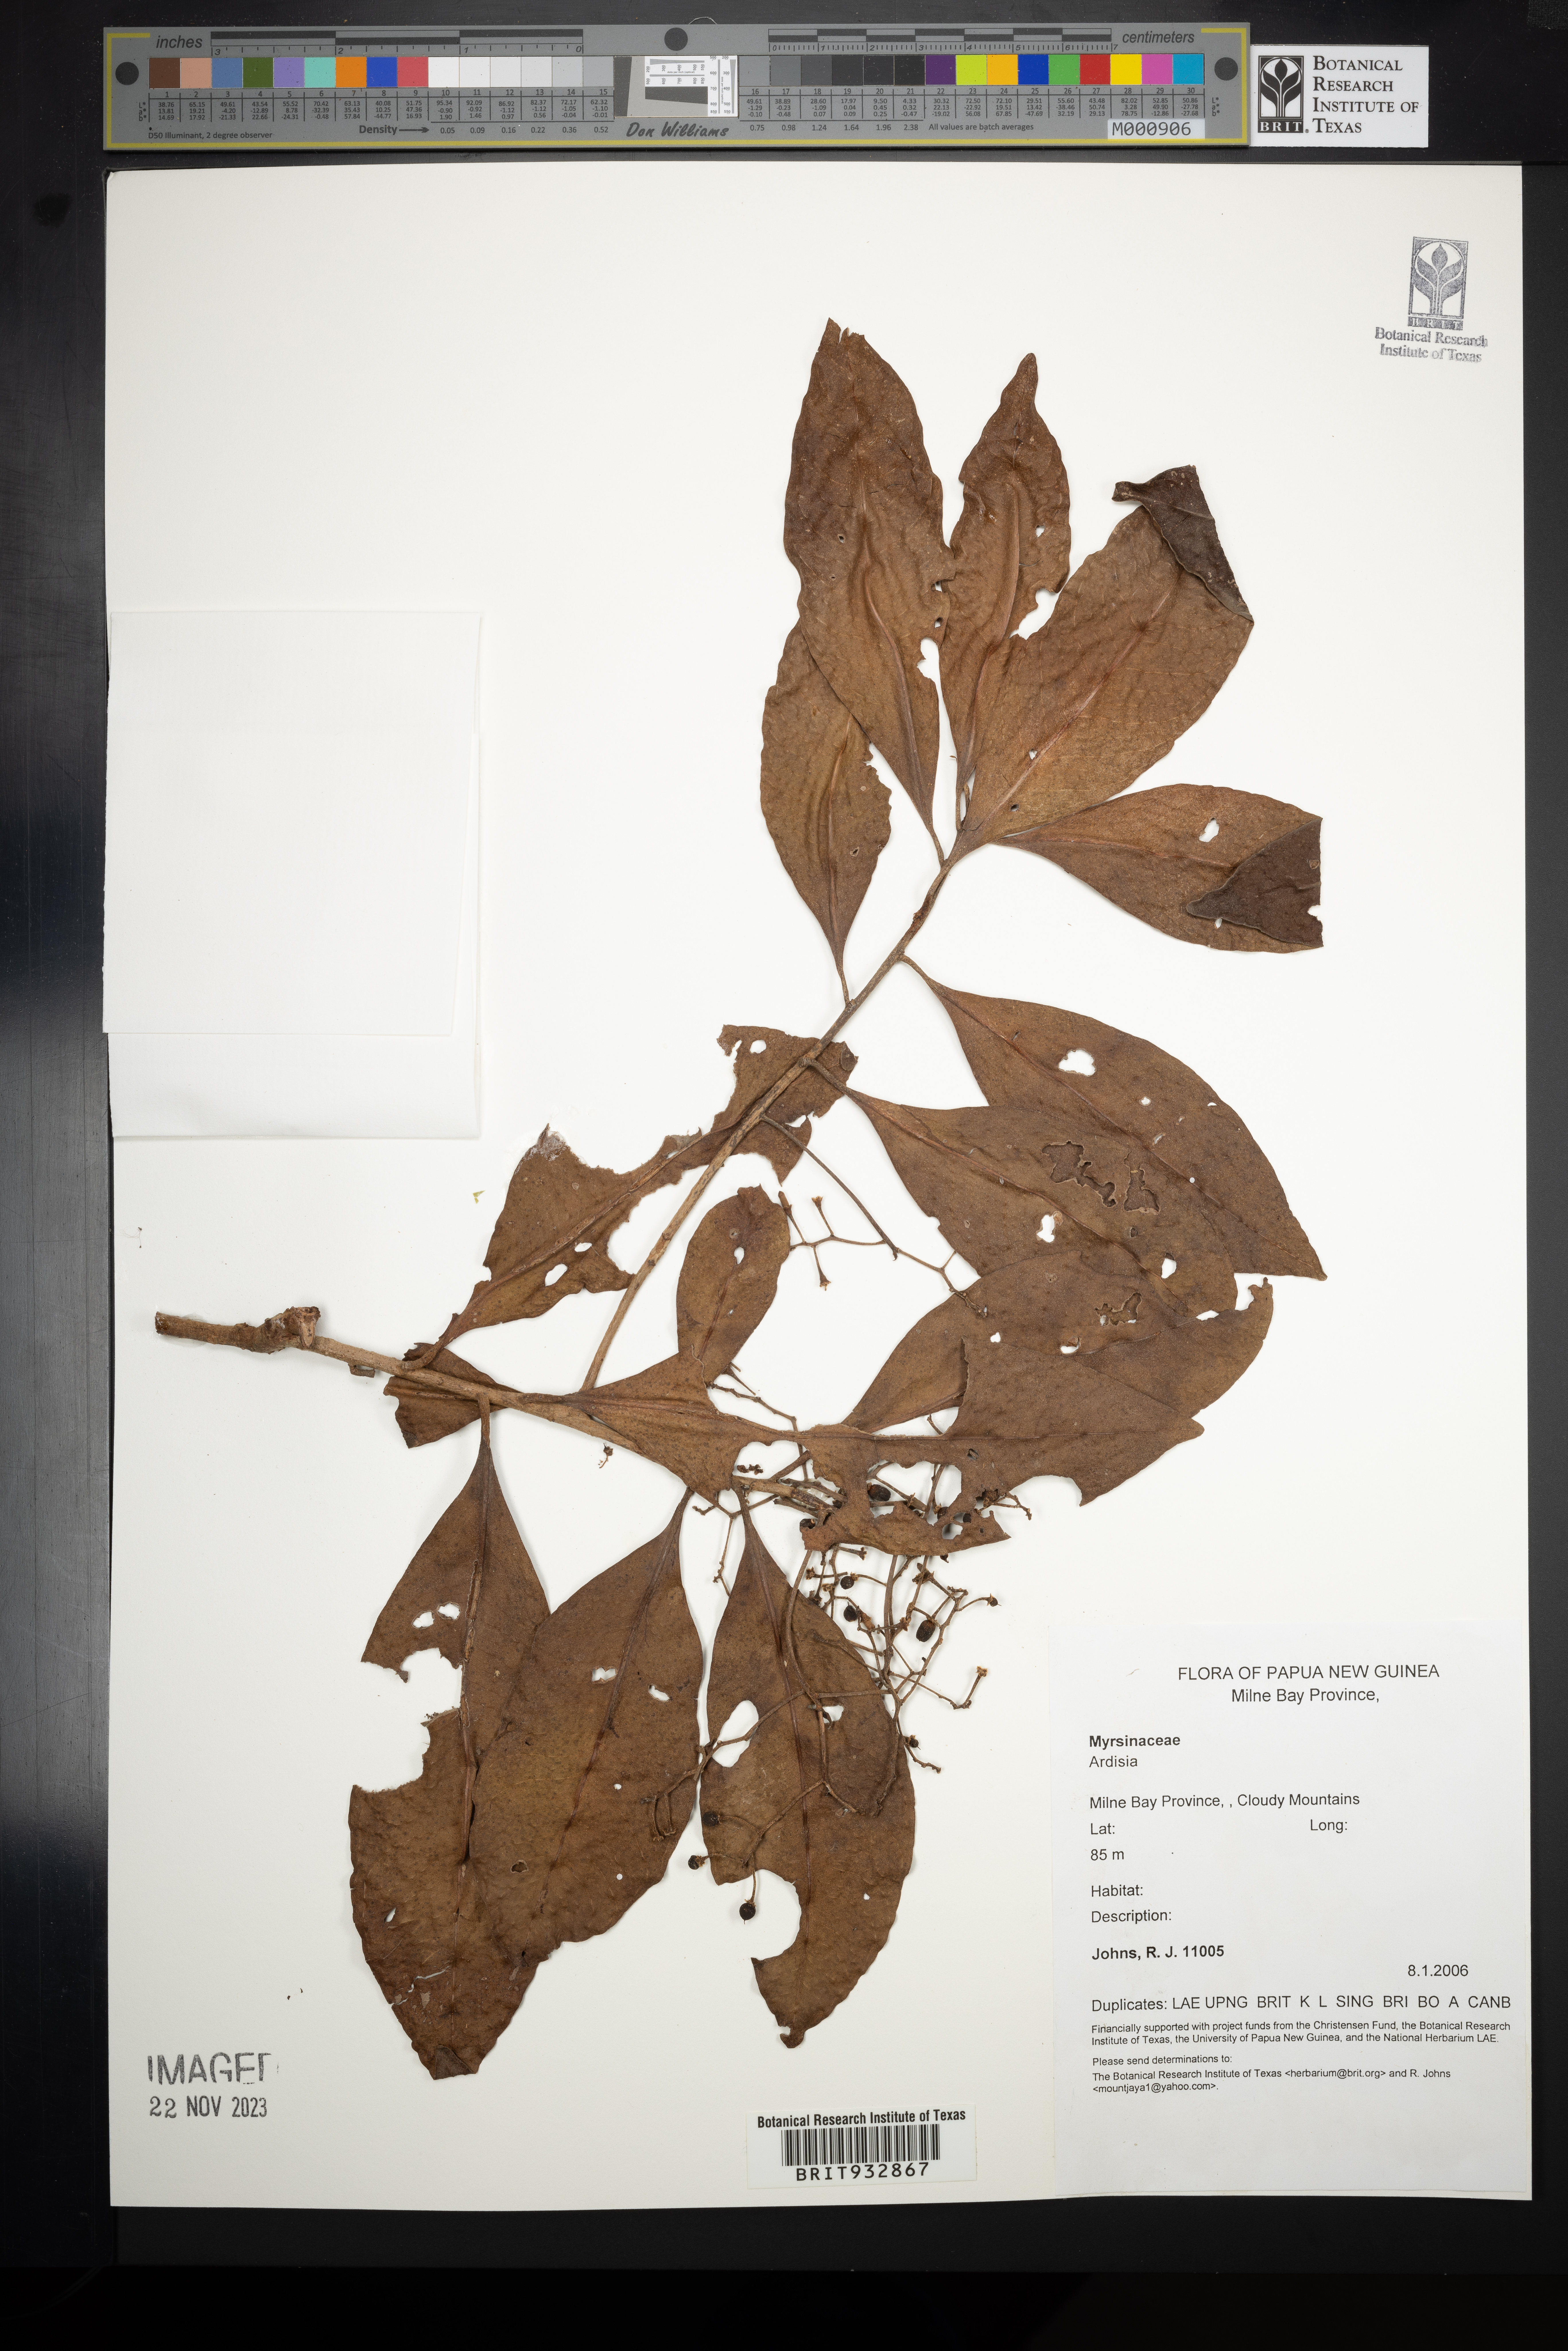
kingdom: Plantae
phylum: Tracheophyta
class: Magnoliopsida
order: Ericales
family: Primulaceae
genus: Ardisia
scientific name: Ardisia
